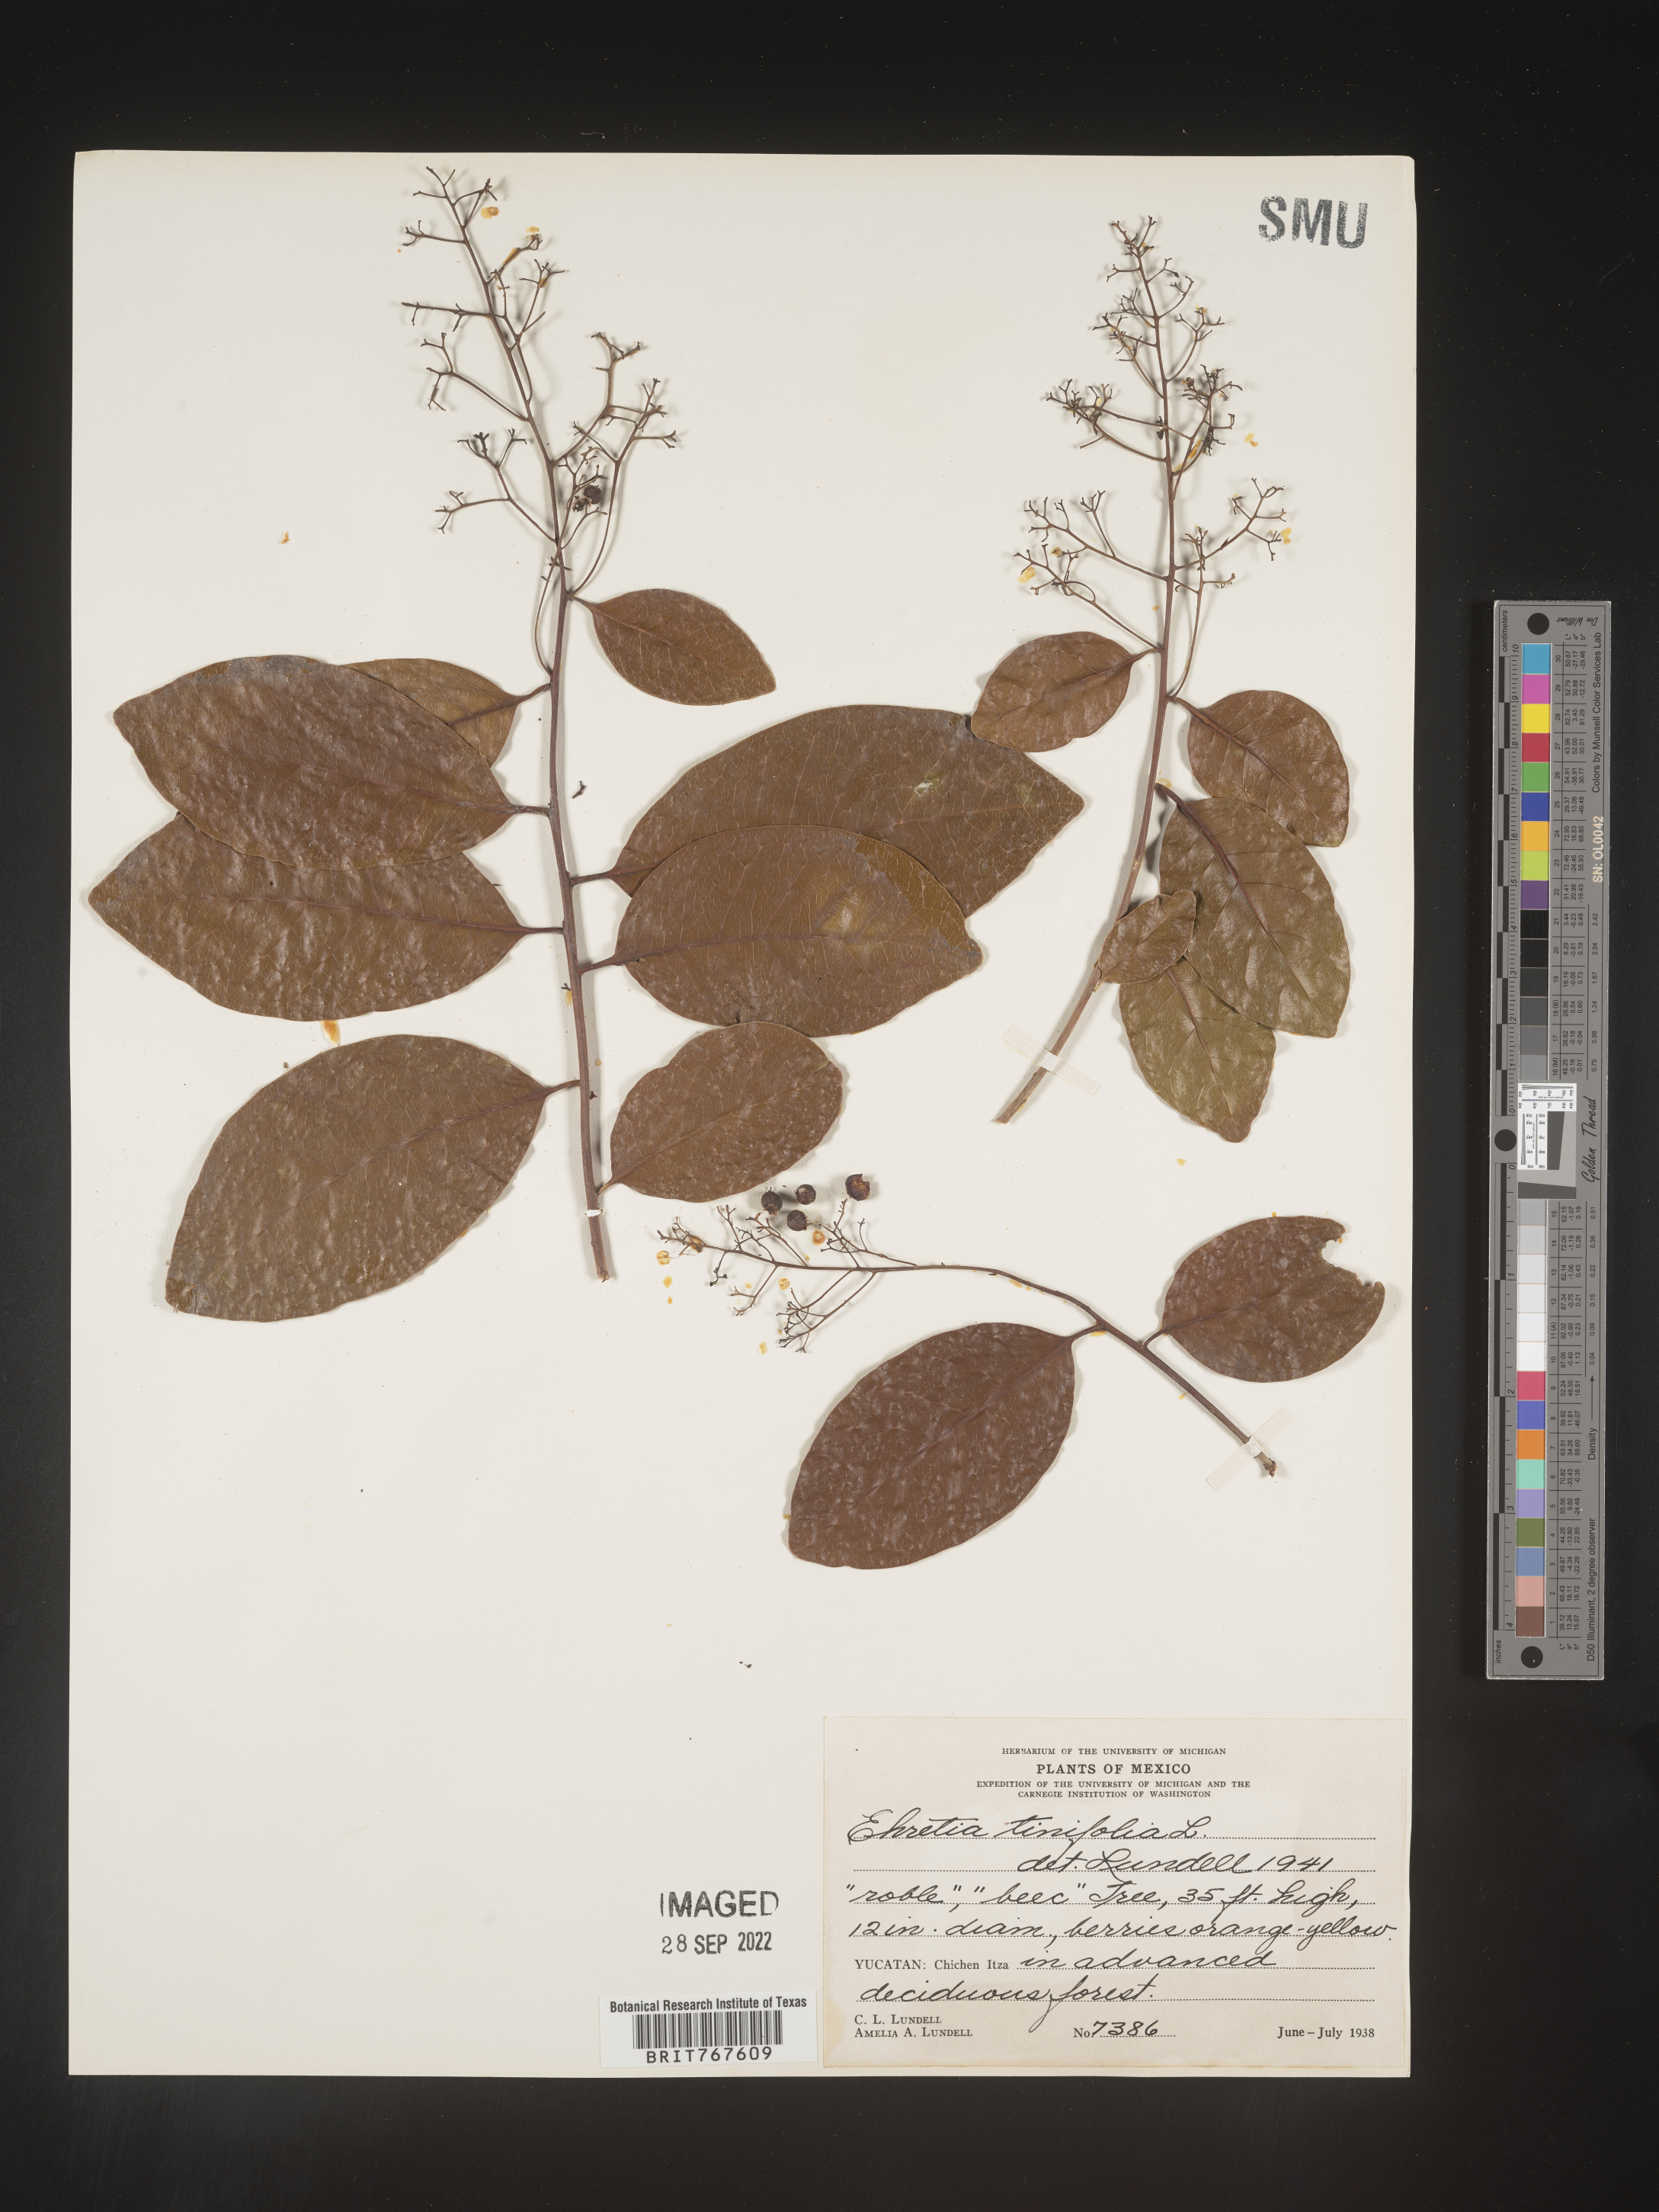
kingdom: Plantae
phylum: Tracheophyta
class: Magnoliopsida
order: Boraginales
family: Ehretiaceae
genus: Ehretia
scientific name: Ehretia
